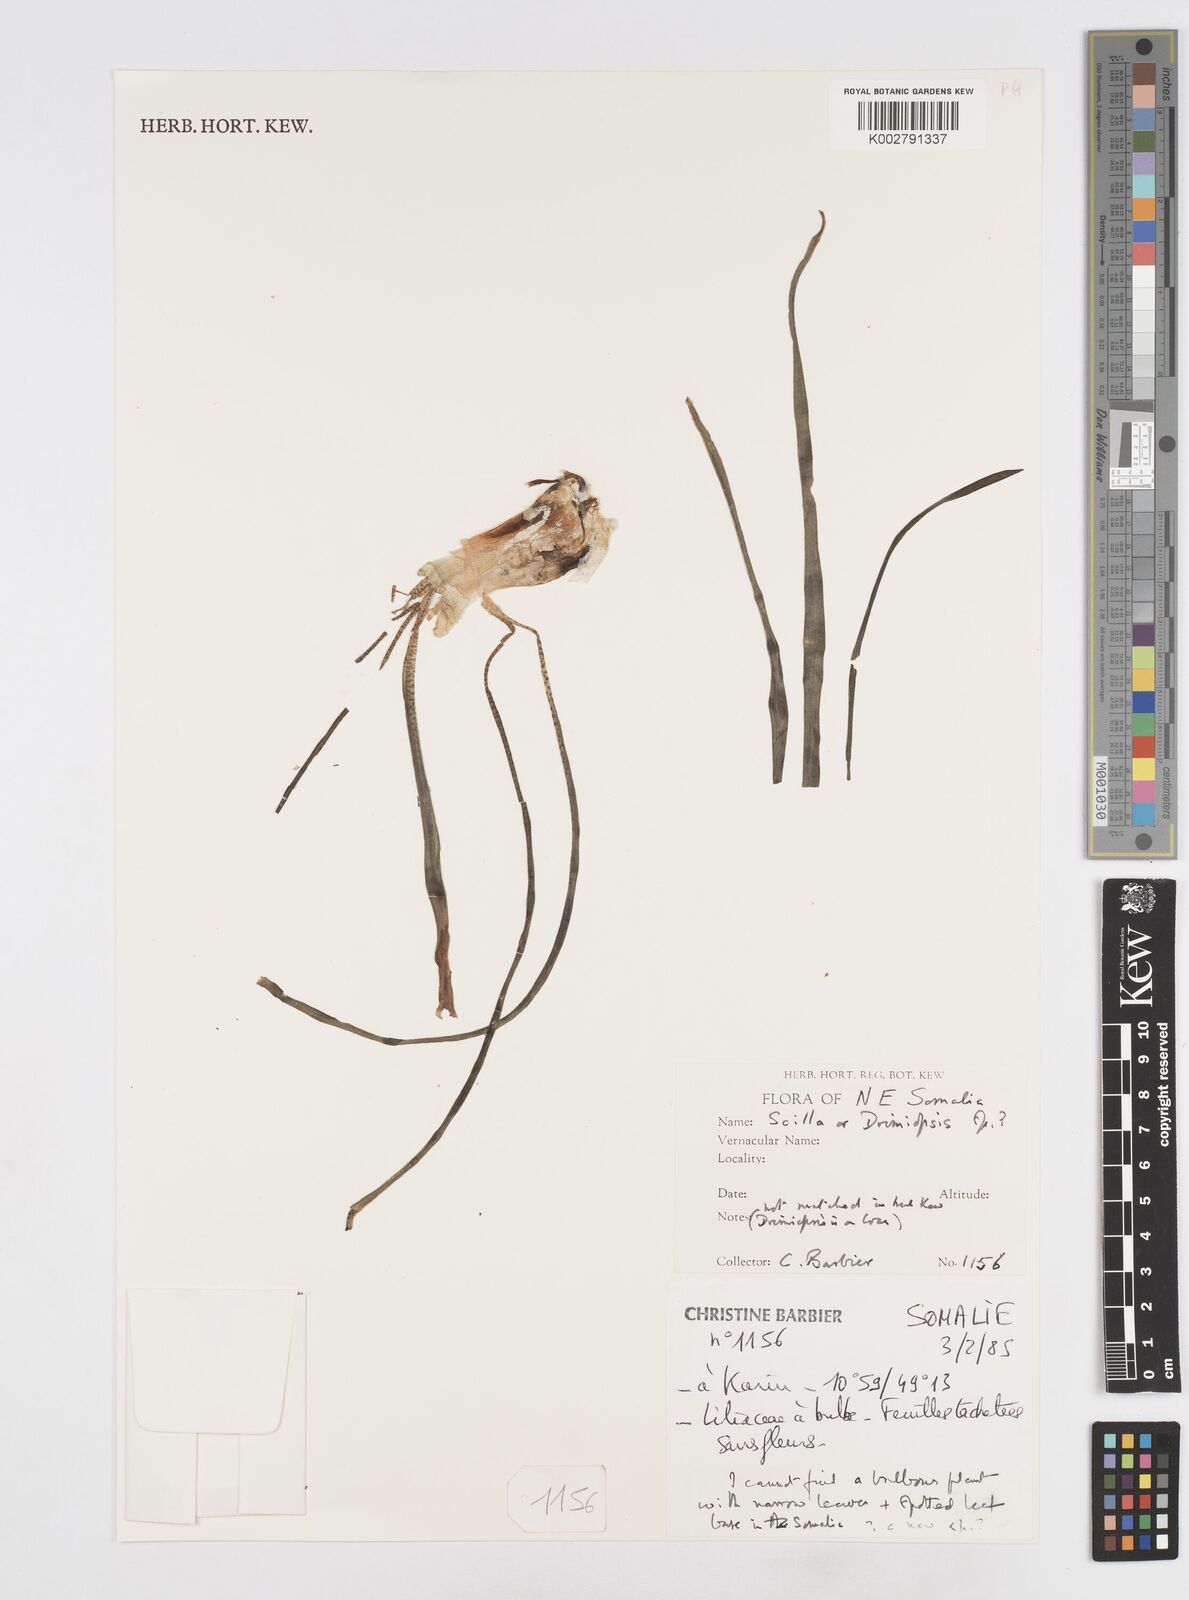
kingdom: Plantae
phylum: Tracheophyta
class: Liliopsida
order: Asparagales
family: Asparagaceae
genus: Scilla
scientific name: Scilla
